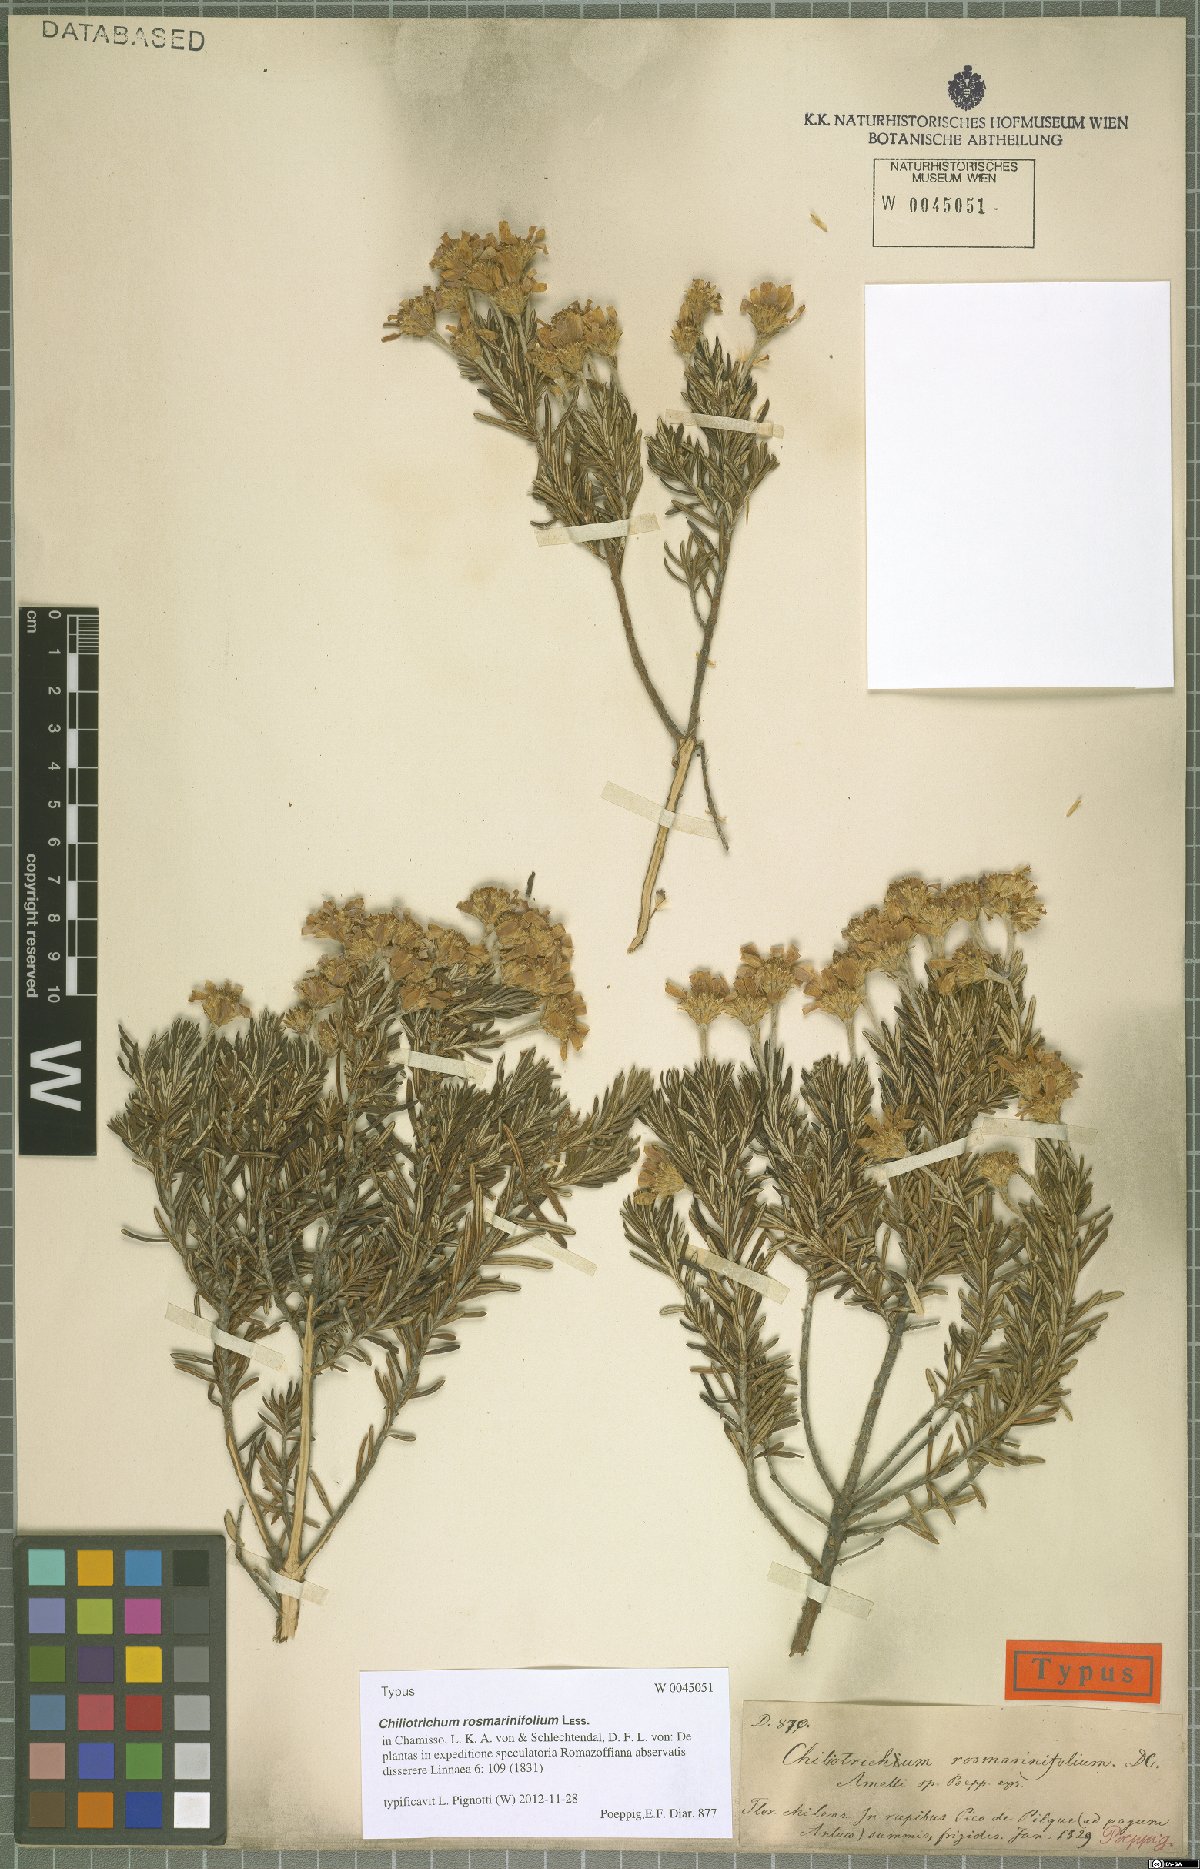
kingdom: Plantae
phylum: Tracheophyta
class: Magnoliopsida
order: Asterales
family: Asteraceae
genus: Chiliotrichum
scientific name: Chiliotrichum diffusum
